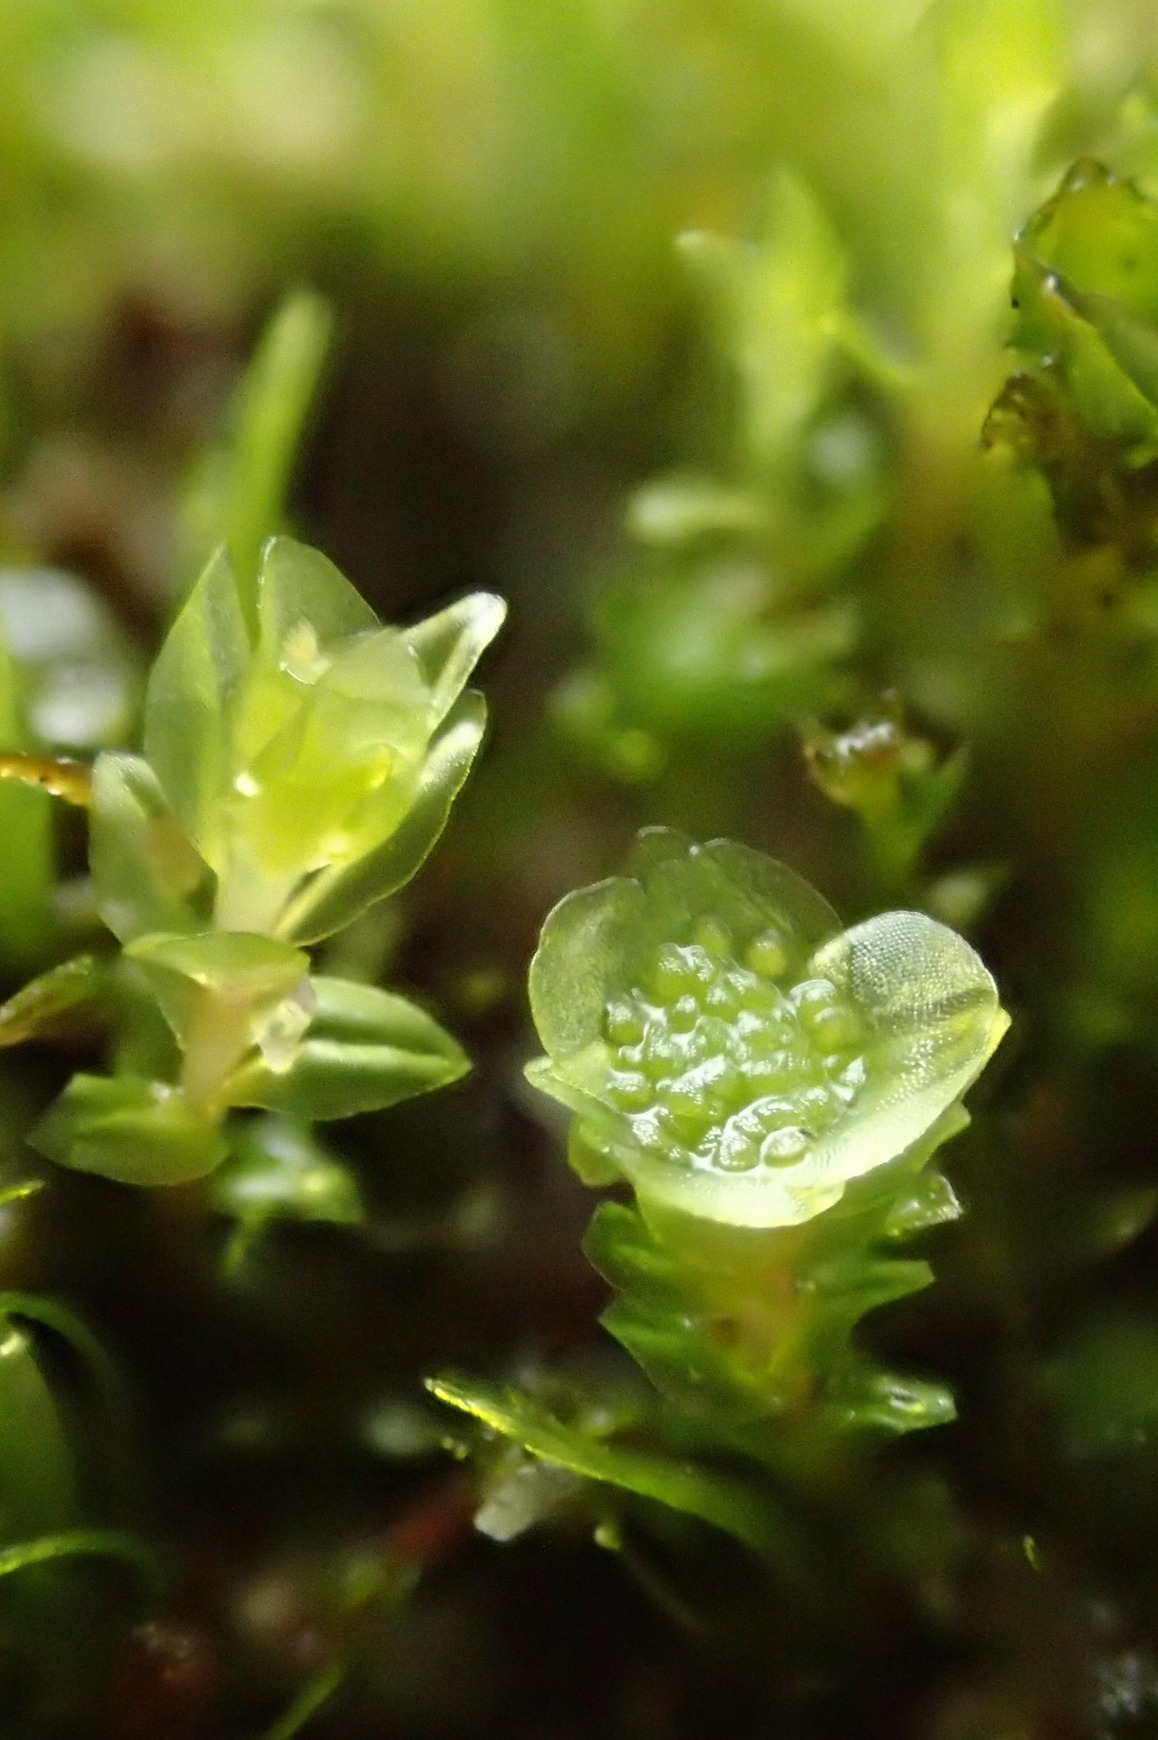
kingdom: Plantae
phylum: Bryophyta
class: Polytrichopsida
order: Tetraphidales
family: Tetraphidaceae
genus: Tetraphis
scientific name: Tetraphis pellucida
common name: Almindelig firtand
